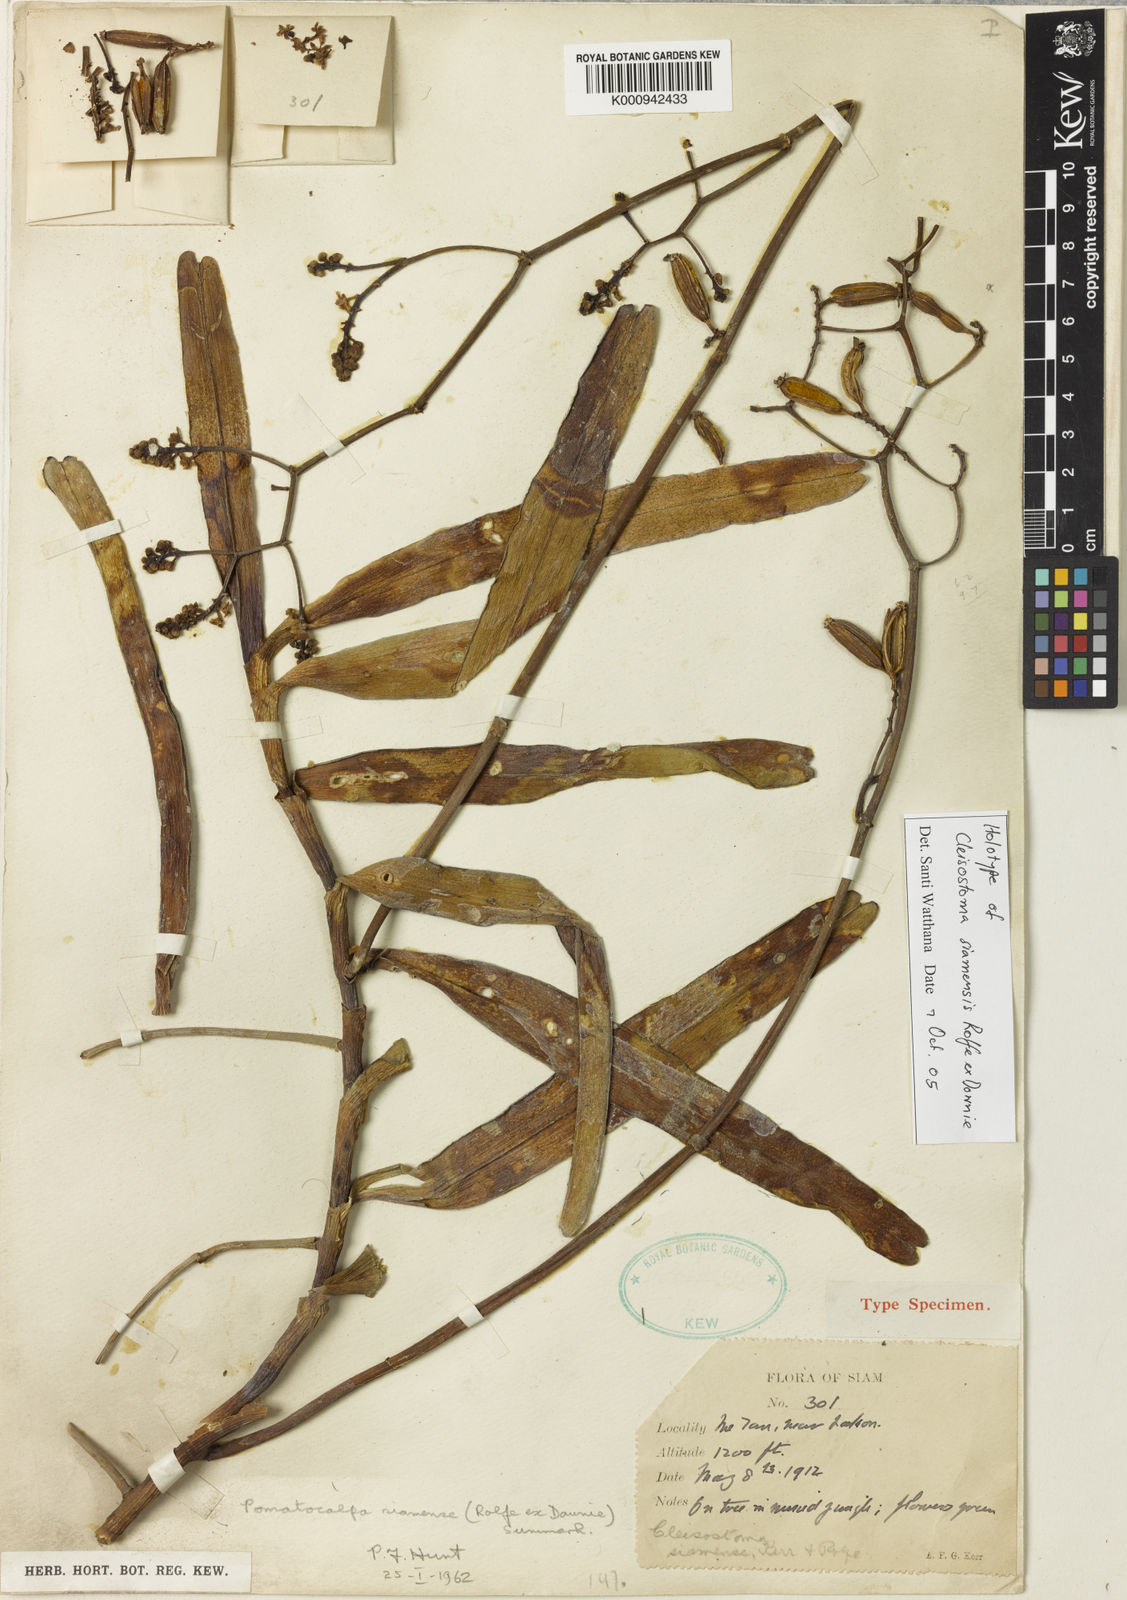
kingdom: Plantae
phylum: Tracheophyta
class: Liliopsida
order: Asparagales
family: Orchidaceae
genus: Pomatocalpa
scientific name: Pomatocalpa maculosum
